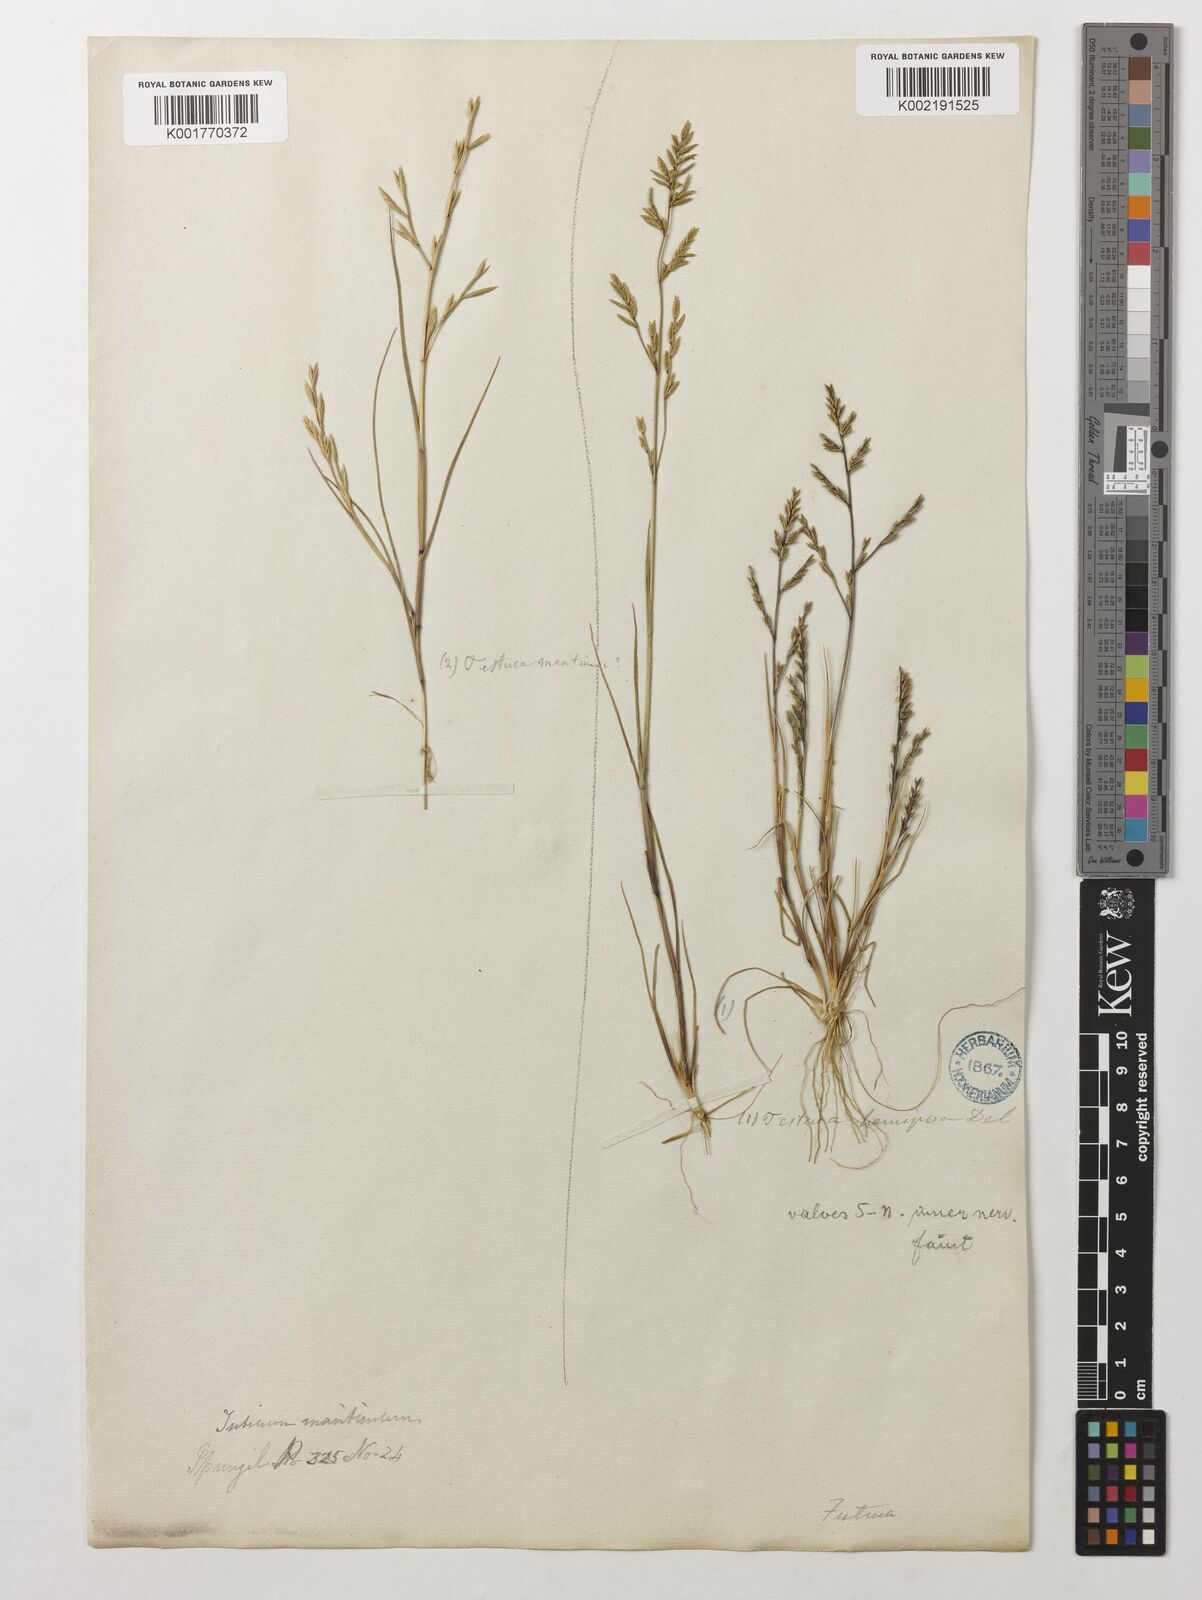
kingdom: Plantae
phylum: Tracheophyta
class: Liliopsida
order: Poales
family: Poaceae
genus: Catapodium
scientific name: Catapodium hemipoa
